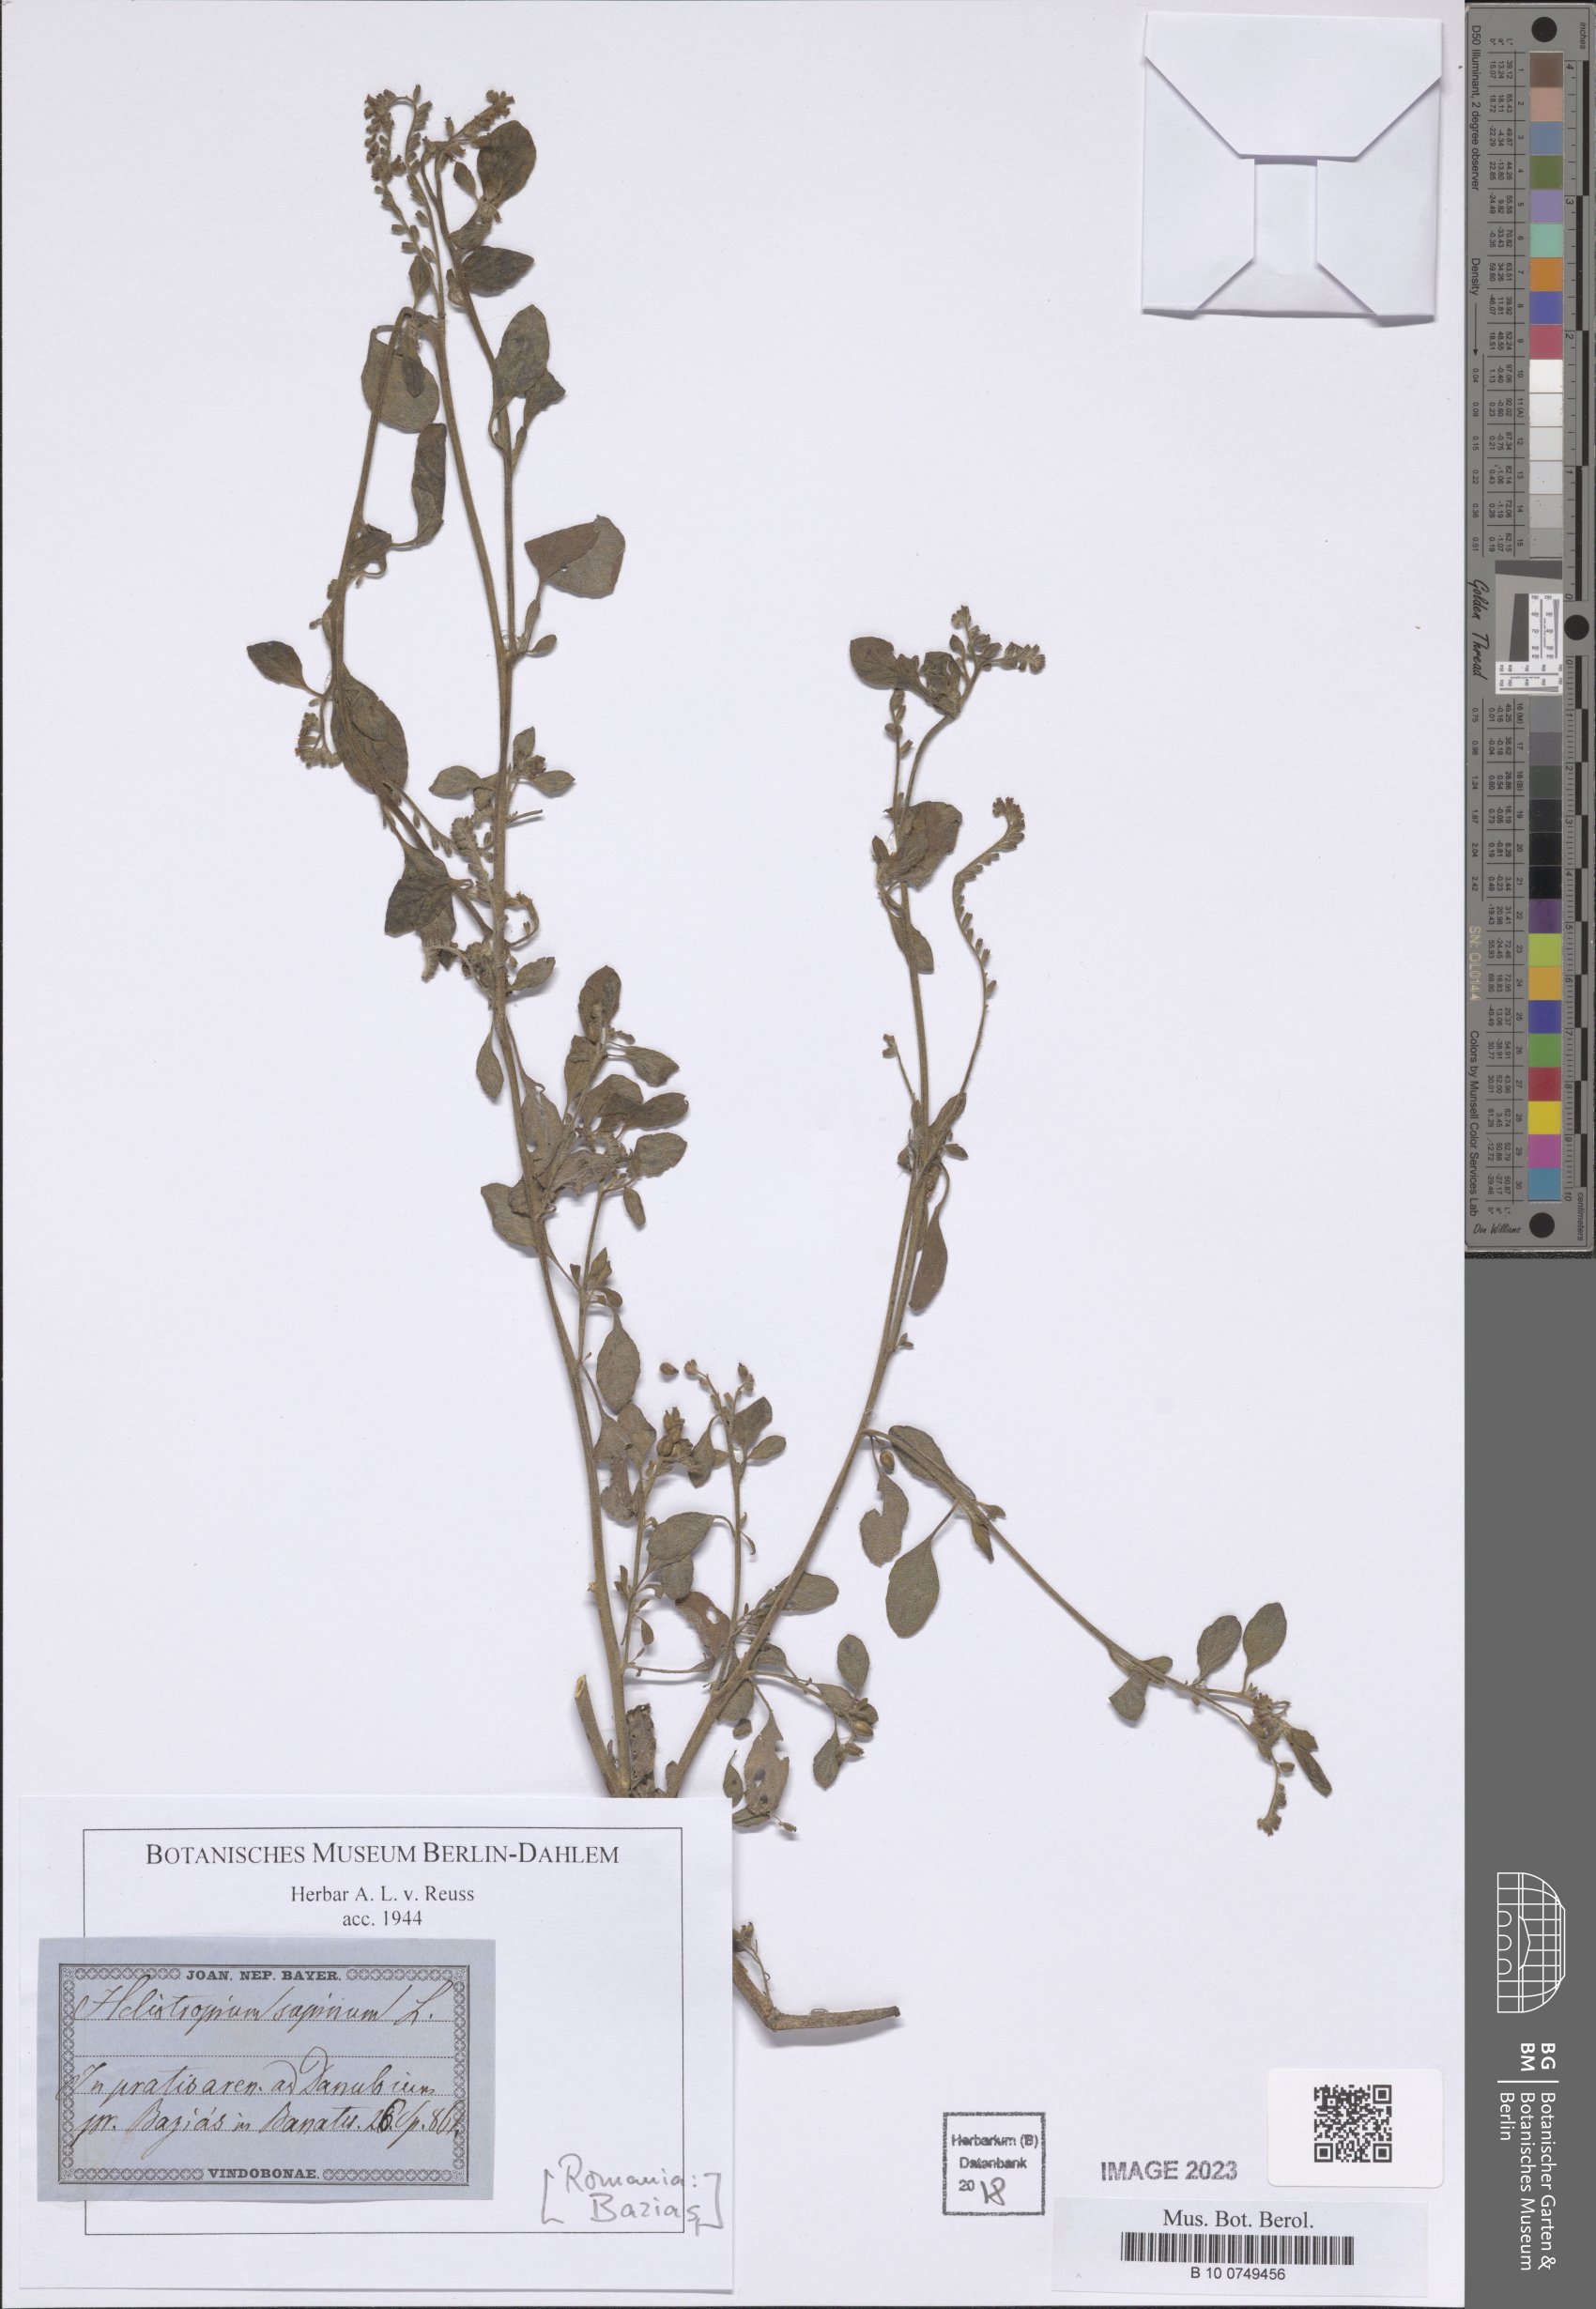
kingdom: Plantae
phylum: Tracheophyta
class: Magnoliopsida
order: Boraginales
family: Heliotropiaceae
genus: Heliotropium
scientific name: Heliotropium supinum
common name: Dwarf heliotrope
